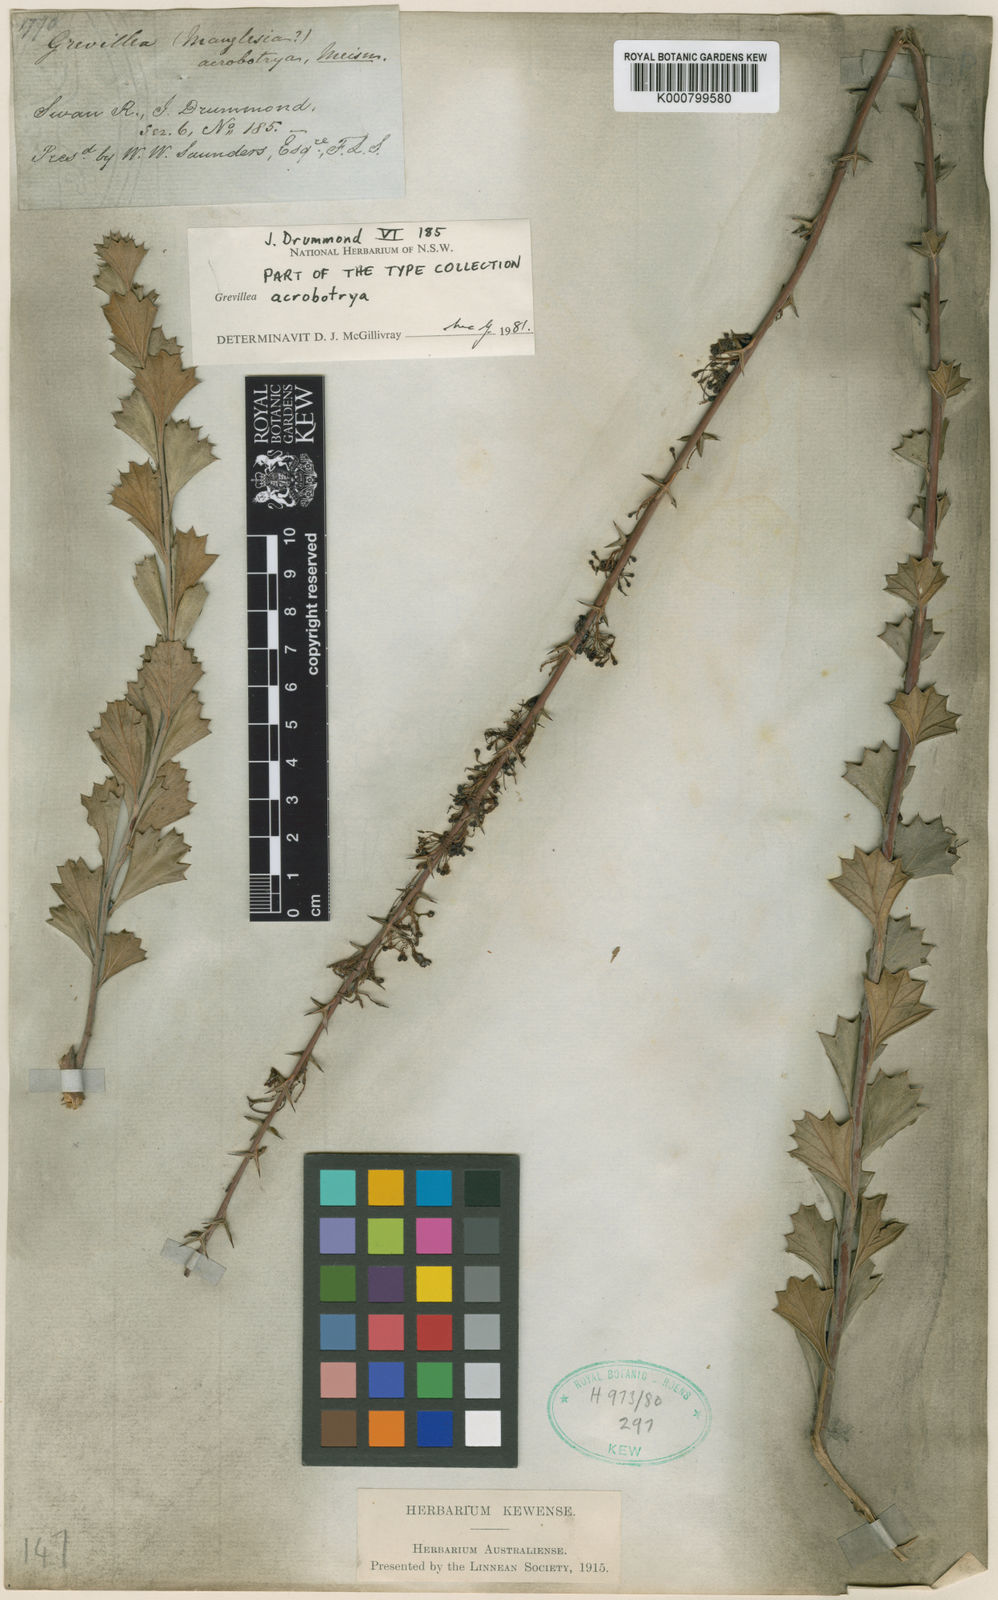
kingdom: Plantae
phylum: Tracheophyta
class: Magnoliopsida
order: Proteales
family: Proteaceae
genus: Grevillea
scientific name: Grevillea acrobotrya
